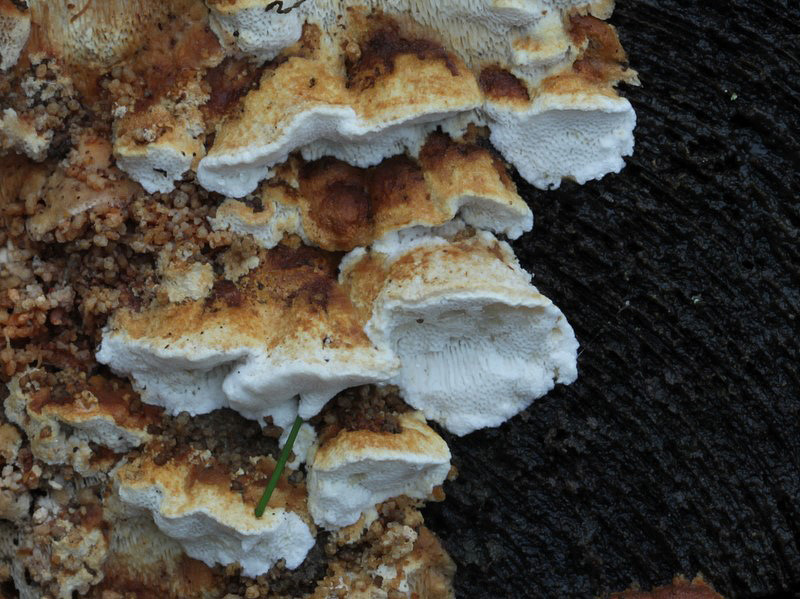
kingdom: Fungi
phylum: Basidiomycota
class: Agaricomycetes
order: Polyporales
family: Fomitopsidaceae
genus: Neoantrodia
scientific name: Neoantrodia serialis
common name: række-sejporesvamp
